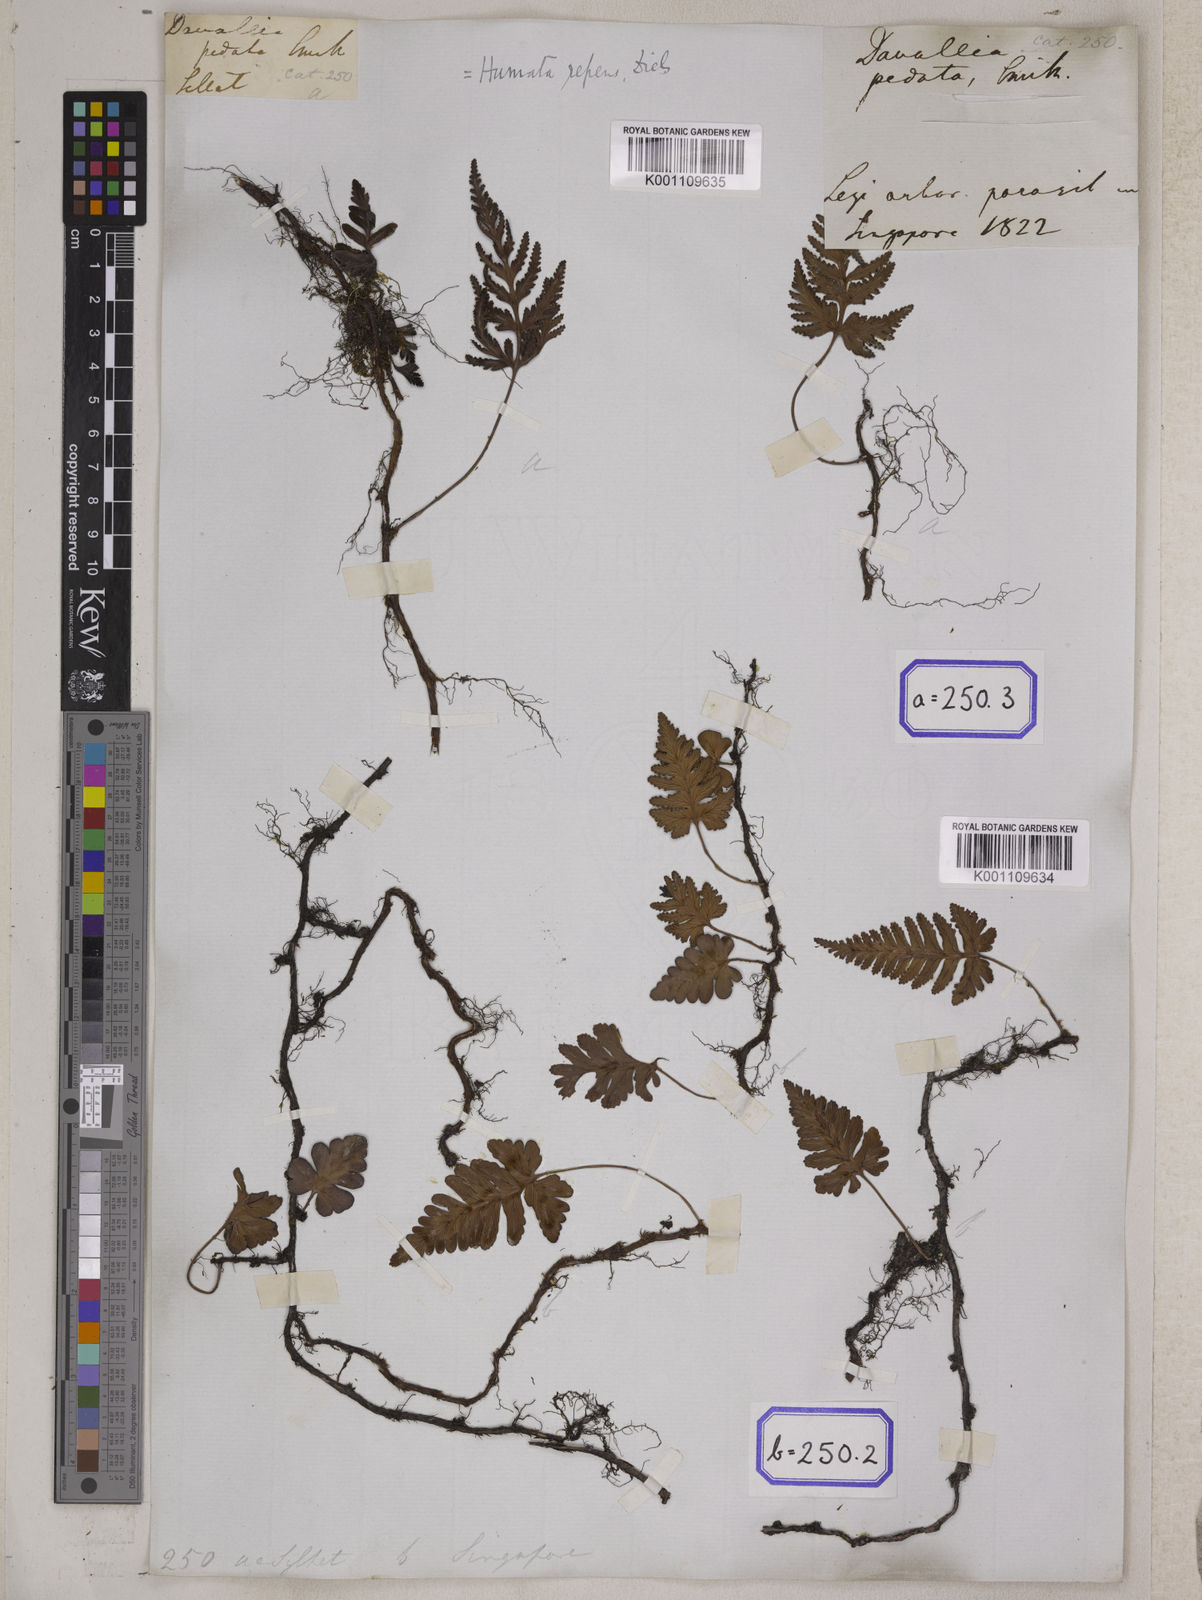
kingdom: Plantae
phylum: Tracheophyta
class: Polypodiopsida
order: Polypodiales
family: Davalliaceae
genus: Davallia
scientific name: Davallia repens
